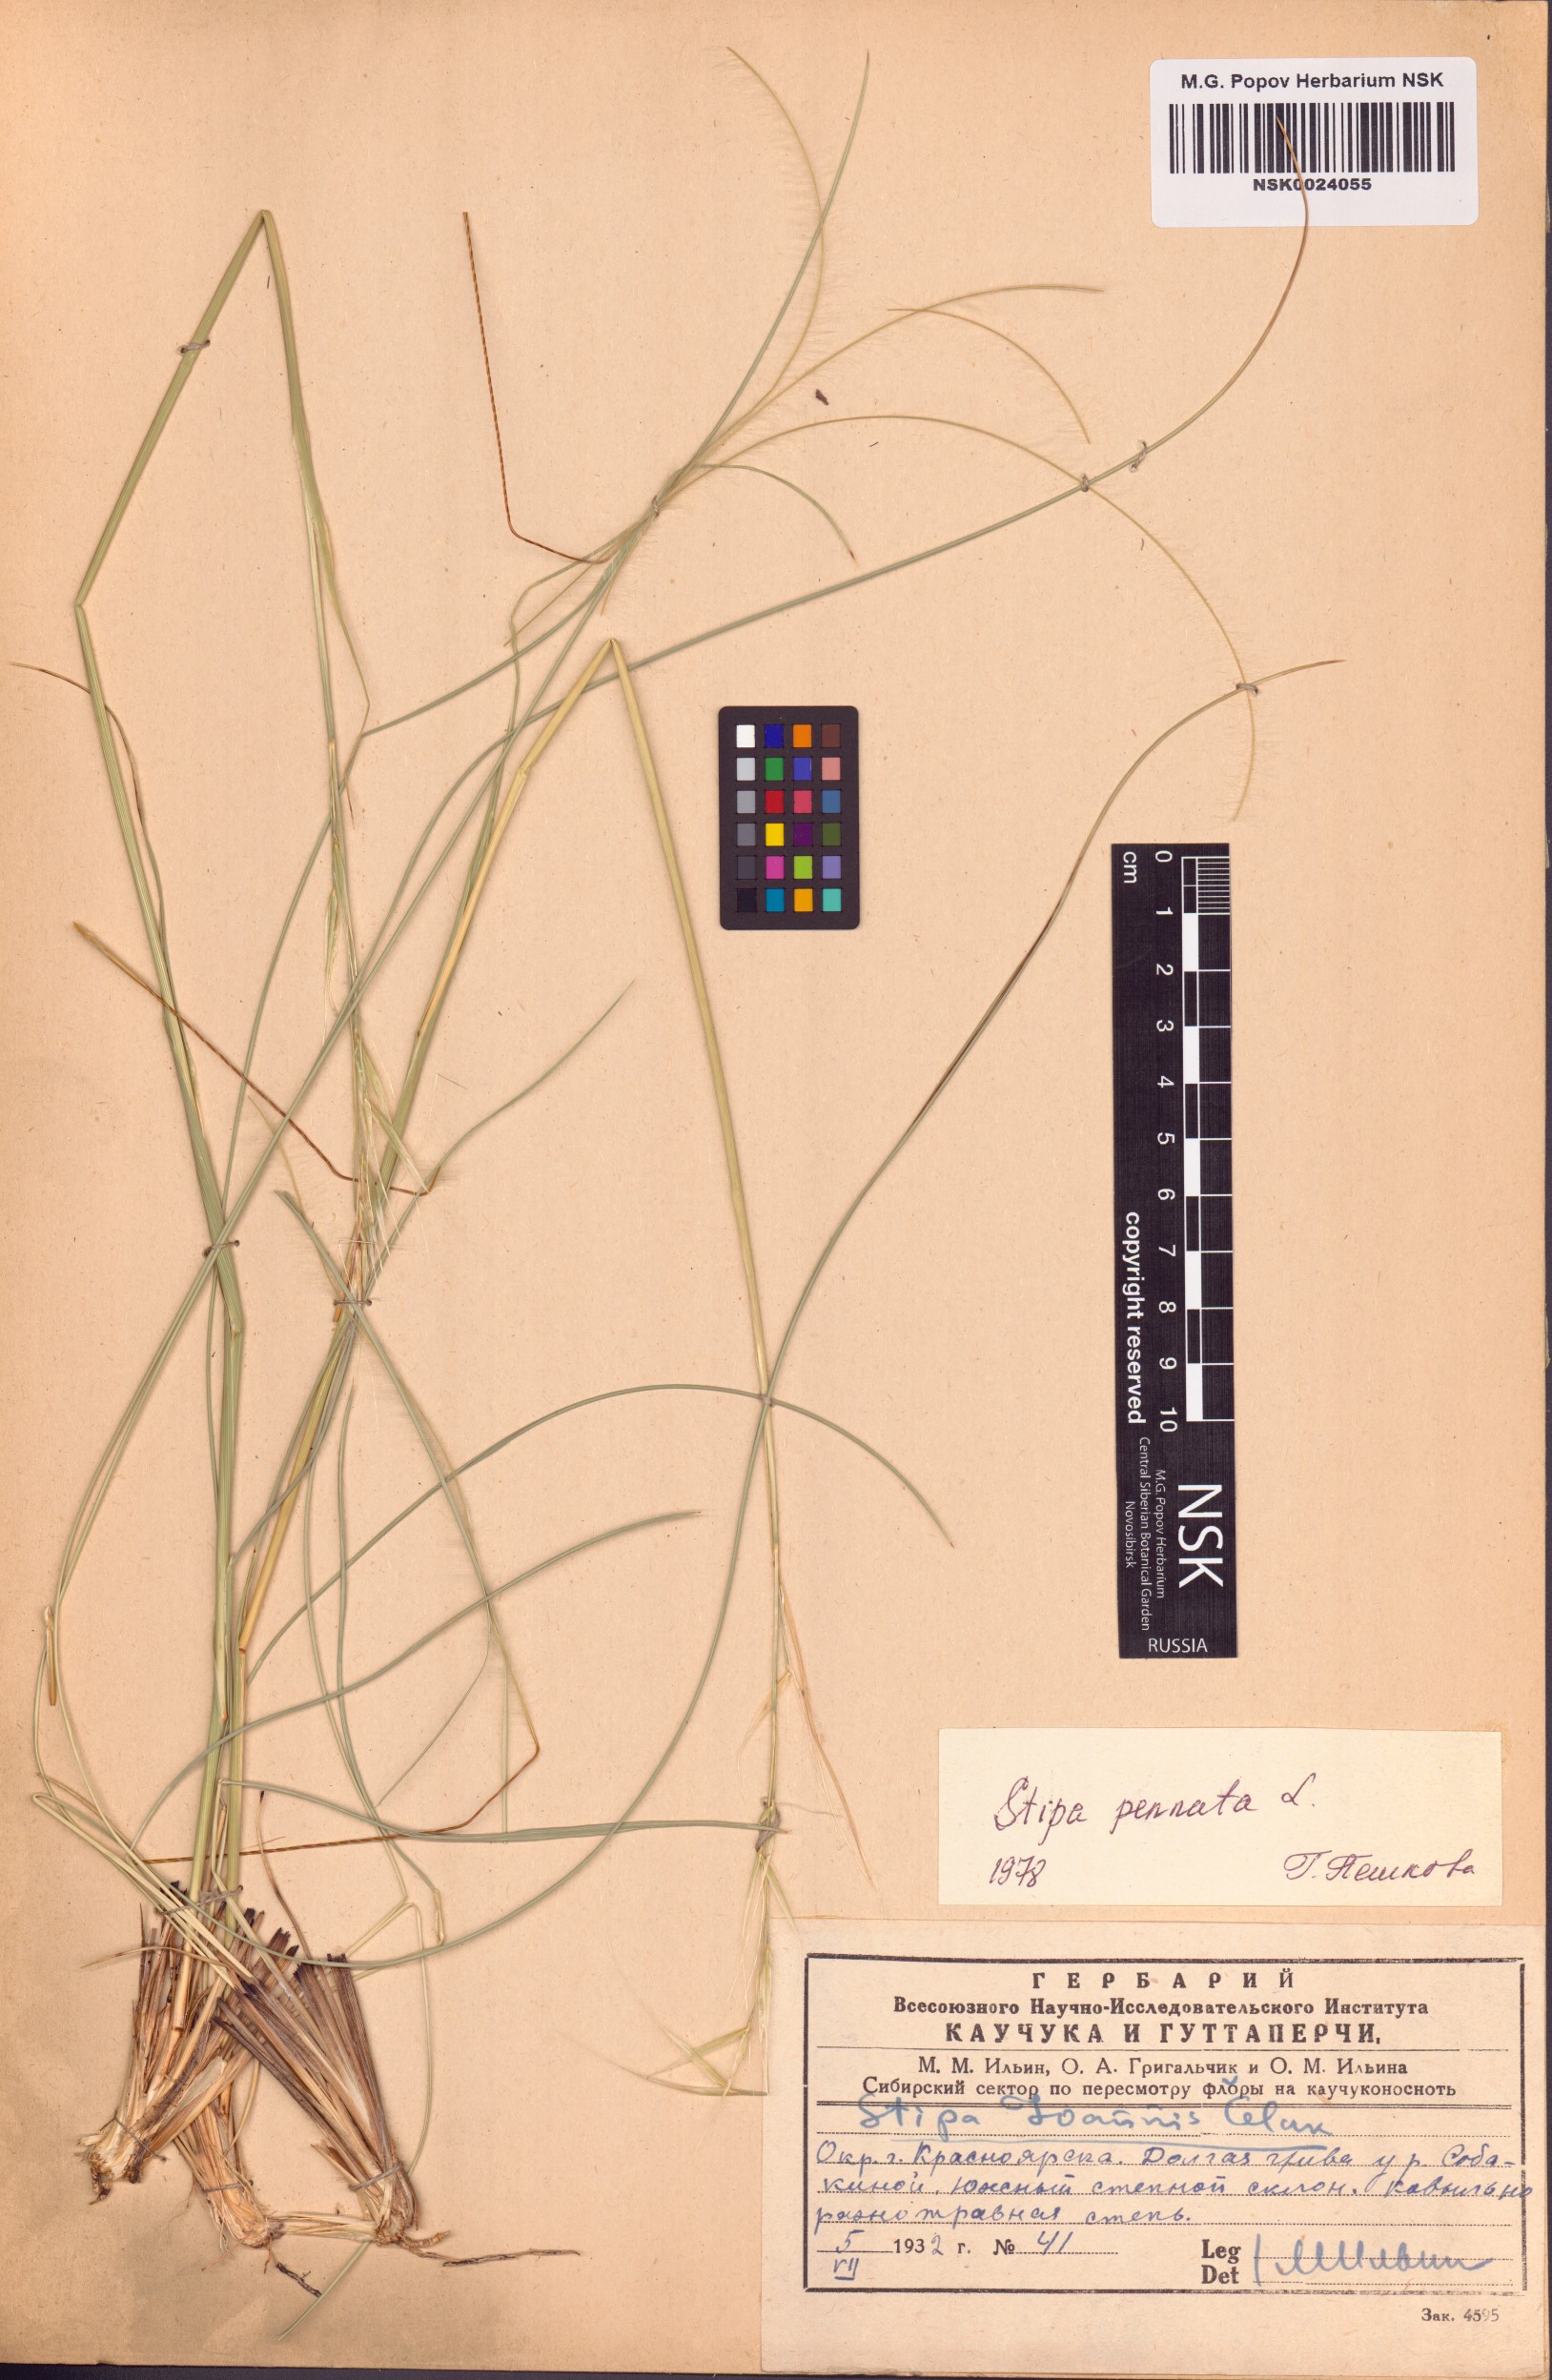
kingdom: Plantae
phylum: Tracheophyta
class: Liliopsida
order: Poales
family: Poaceae
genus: Stipa
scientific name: Stipa pennata
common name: European feather grass
